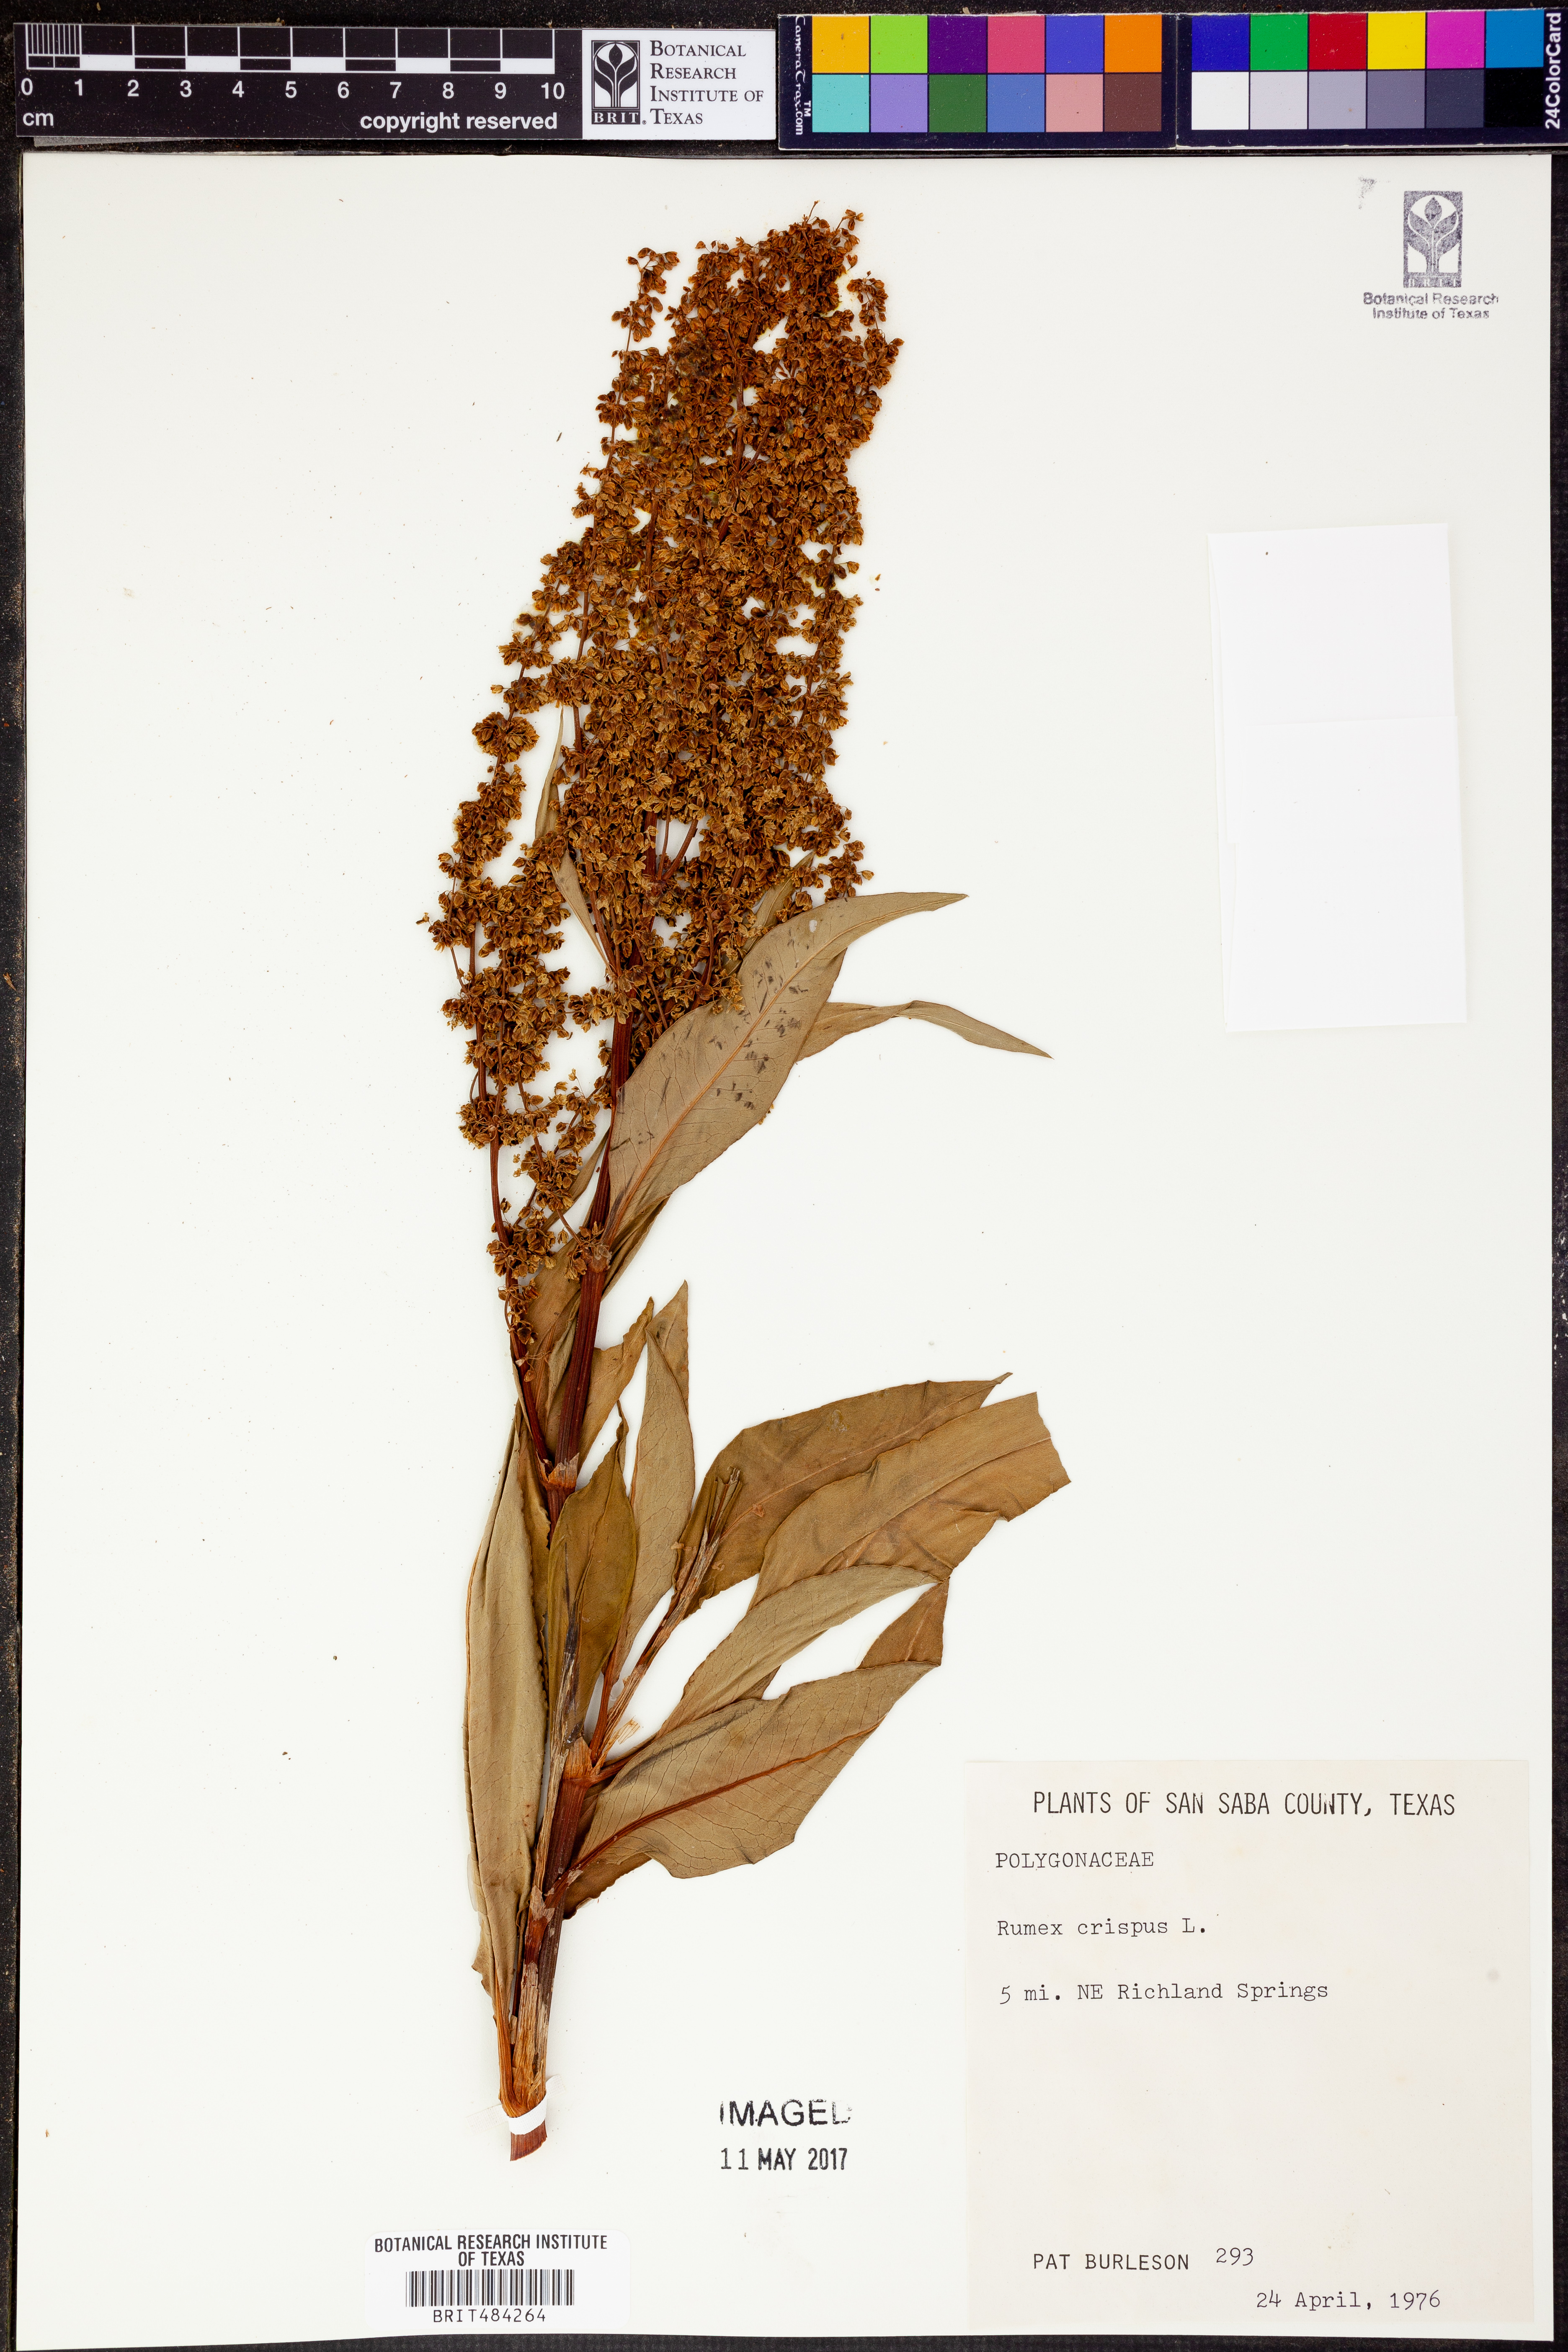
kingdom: Plantae
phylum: Tracheophyta
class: Magnoliopsida
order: Caryophyllales
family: Polygonaceae
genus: Rumex
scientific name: Rumex crispus
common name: Curled dock
